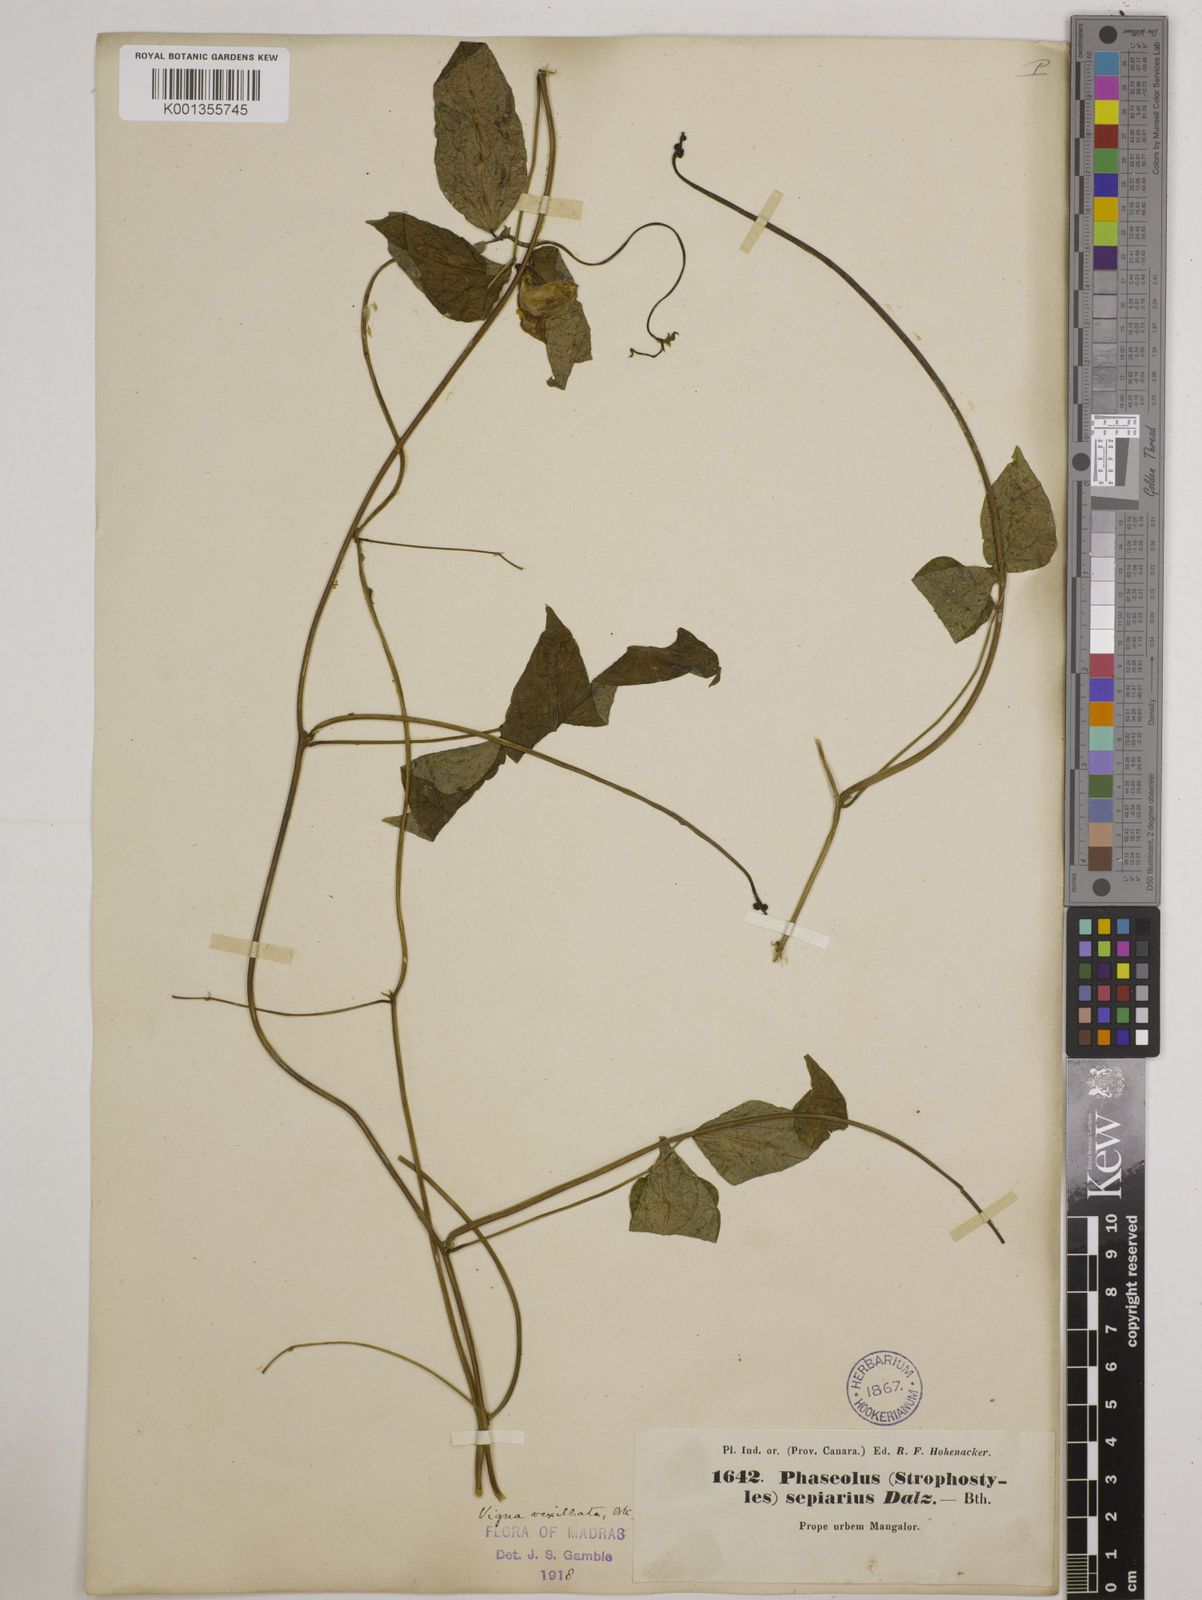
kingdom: Plantae
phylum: Tracheophyta
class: Magnoliopsida
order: Fabales
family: Fabaceae
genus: Vigna
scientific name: Vigna vexillata
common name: Zombi pea
